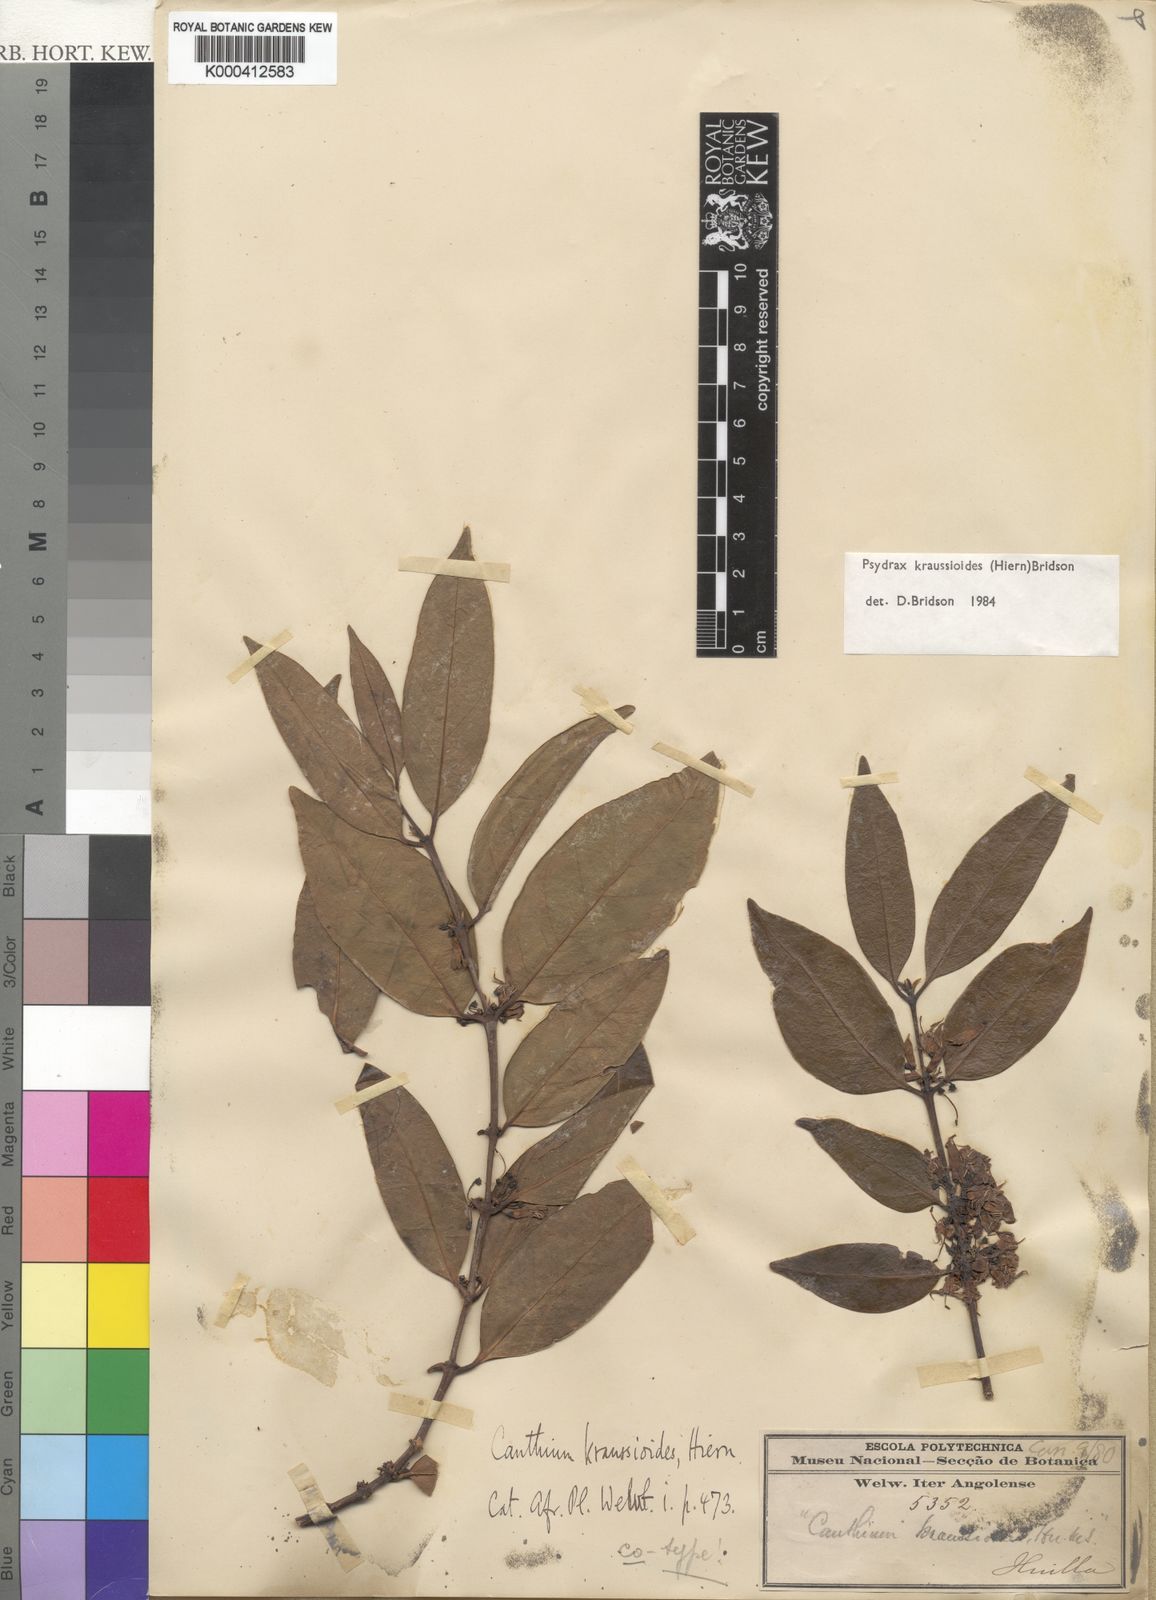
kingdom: Plantae
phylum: Tracheophyta
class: Magnoliopsida
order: Gentianales
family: Rubiaceae
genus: Psydrax
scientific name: Psydrax kraussioides
